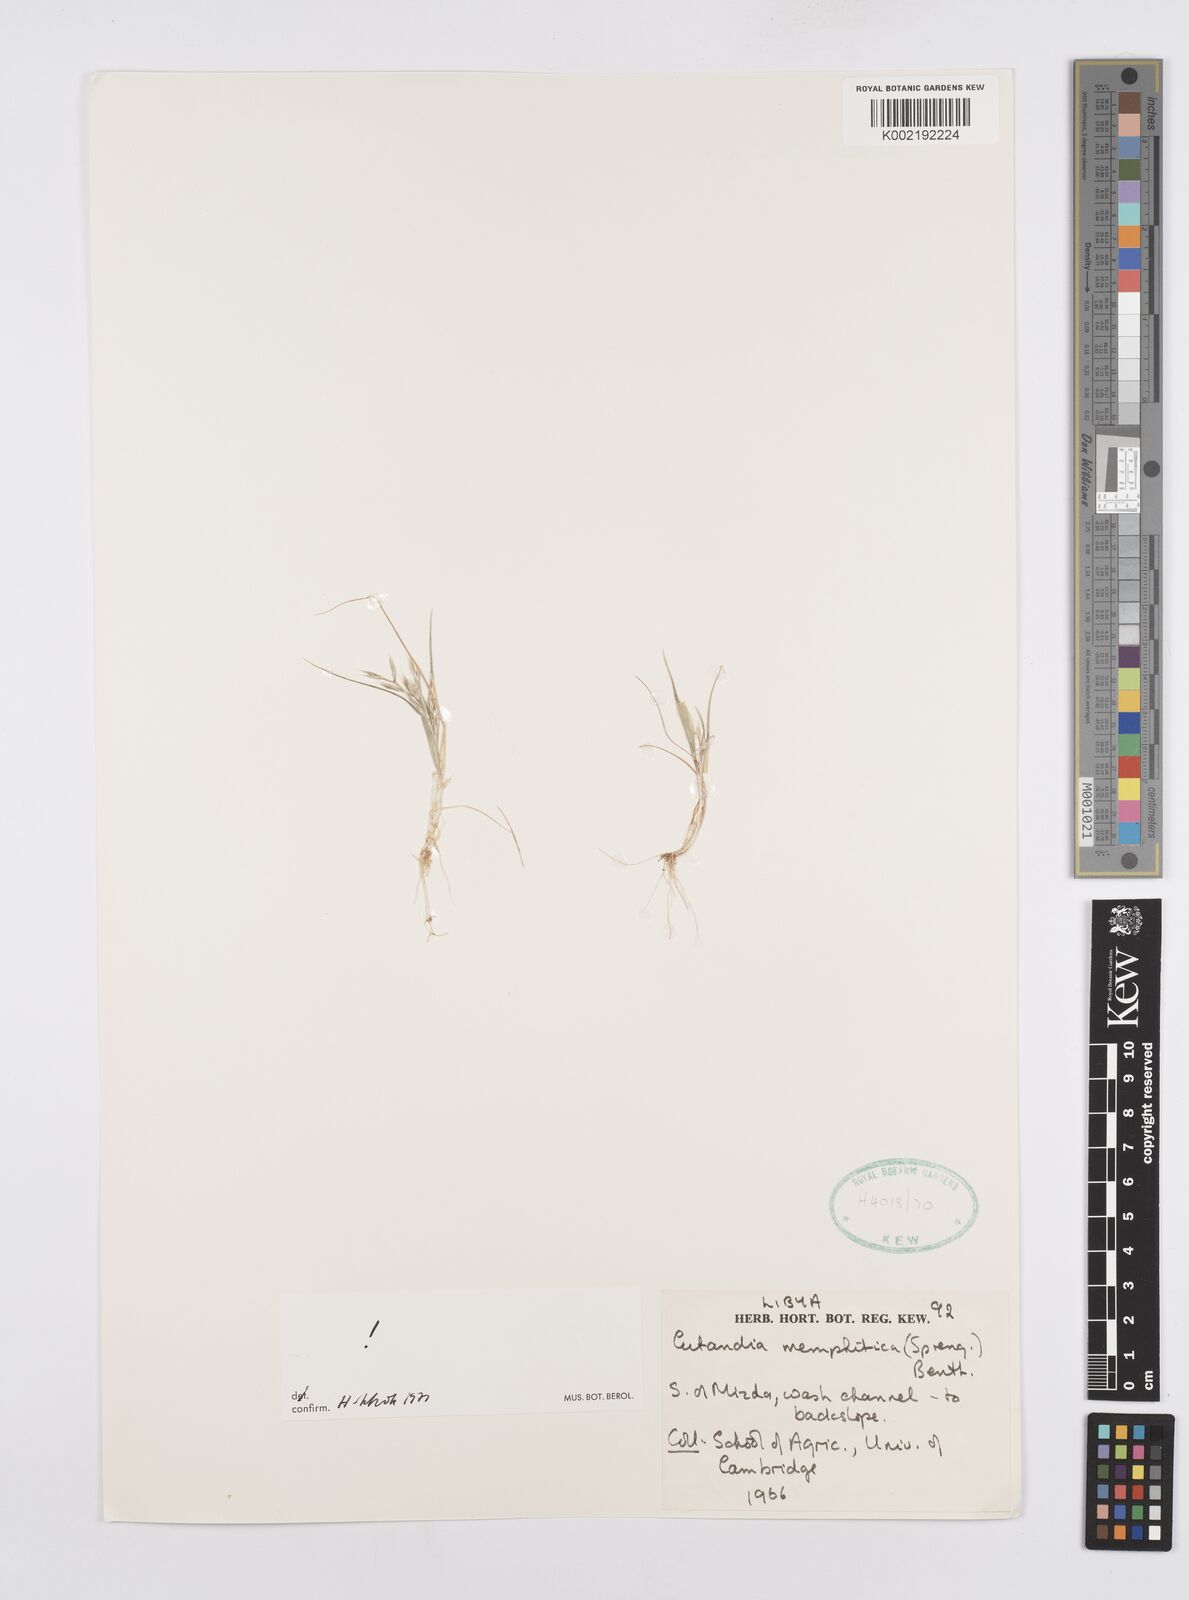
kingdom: Plantae
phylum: Tracheophyta
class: Liliopsida
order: Poales
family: Poaceae
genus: Cutandia
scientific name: Cutandia memphitica
